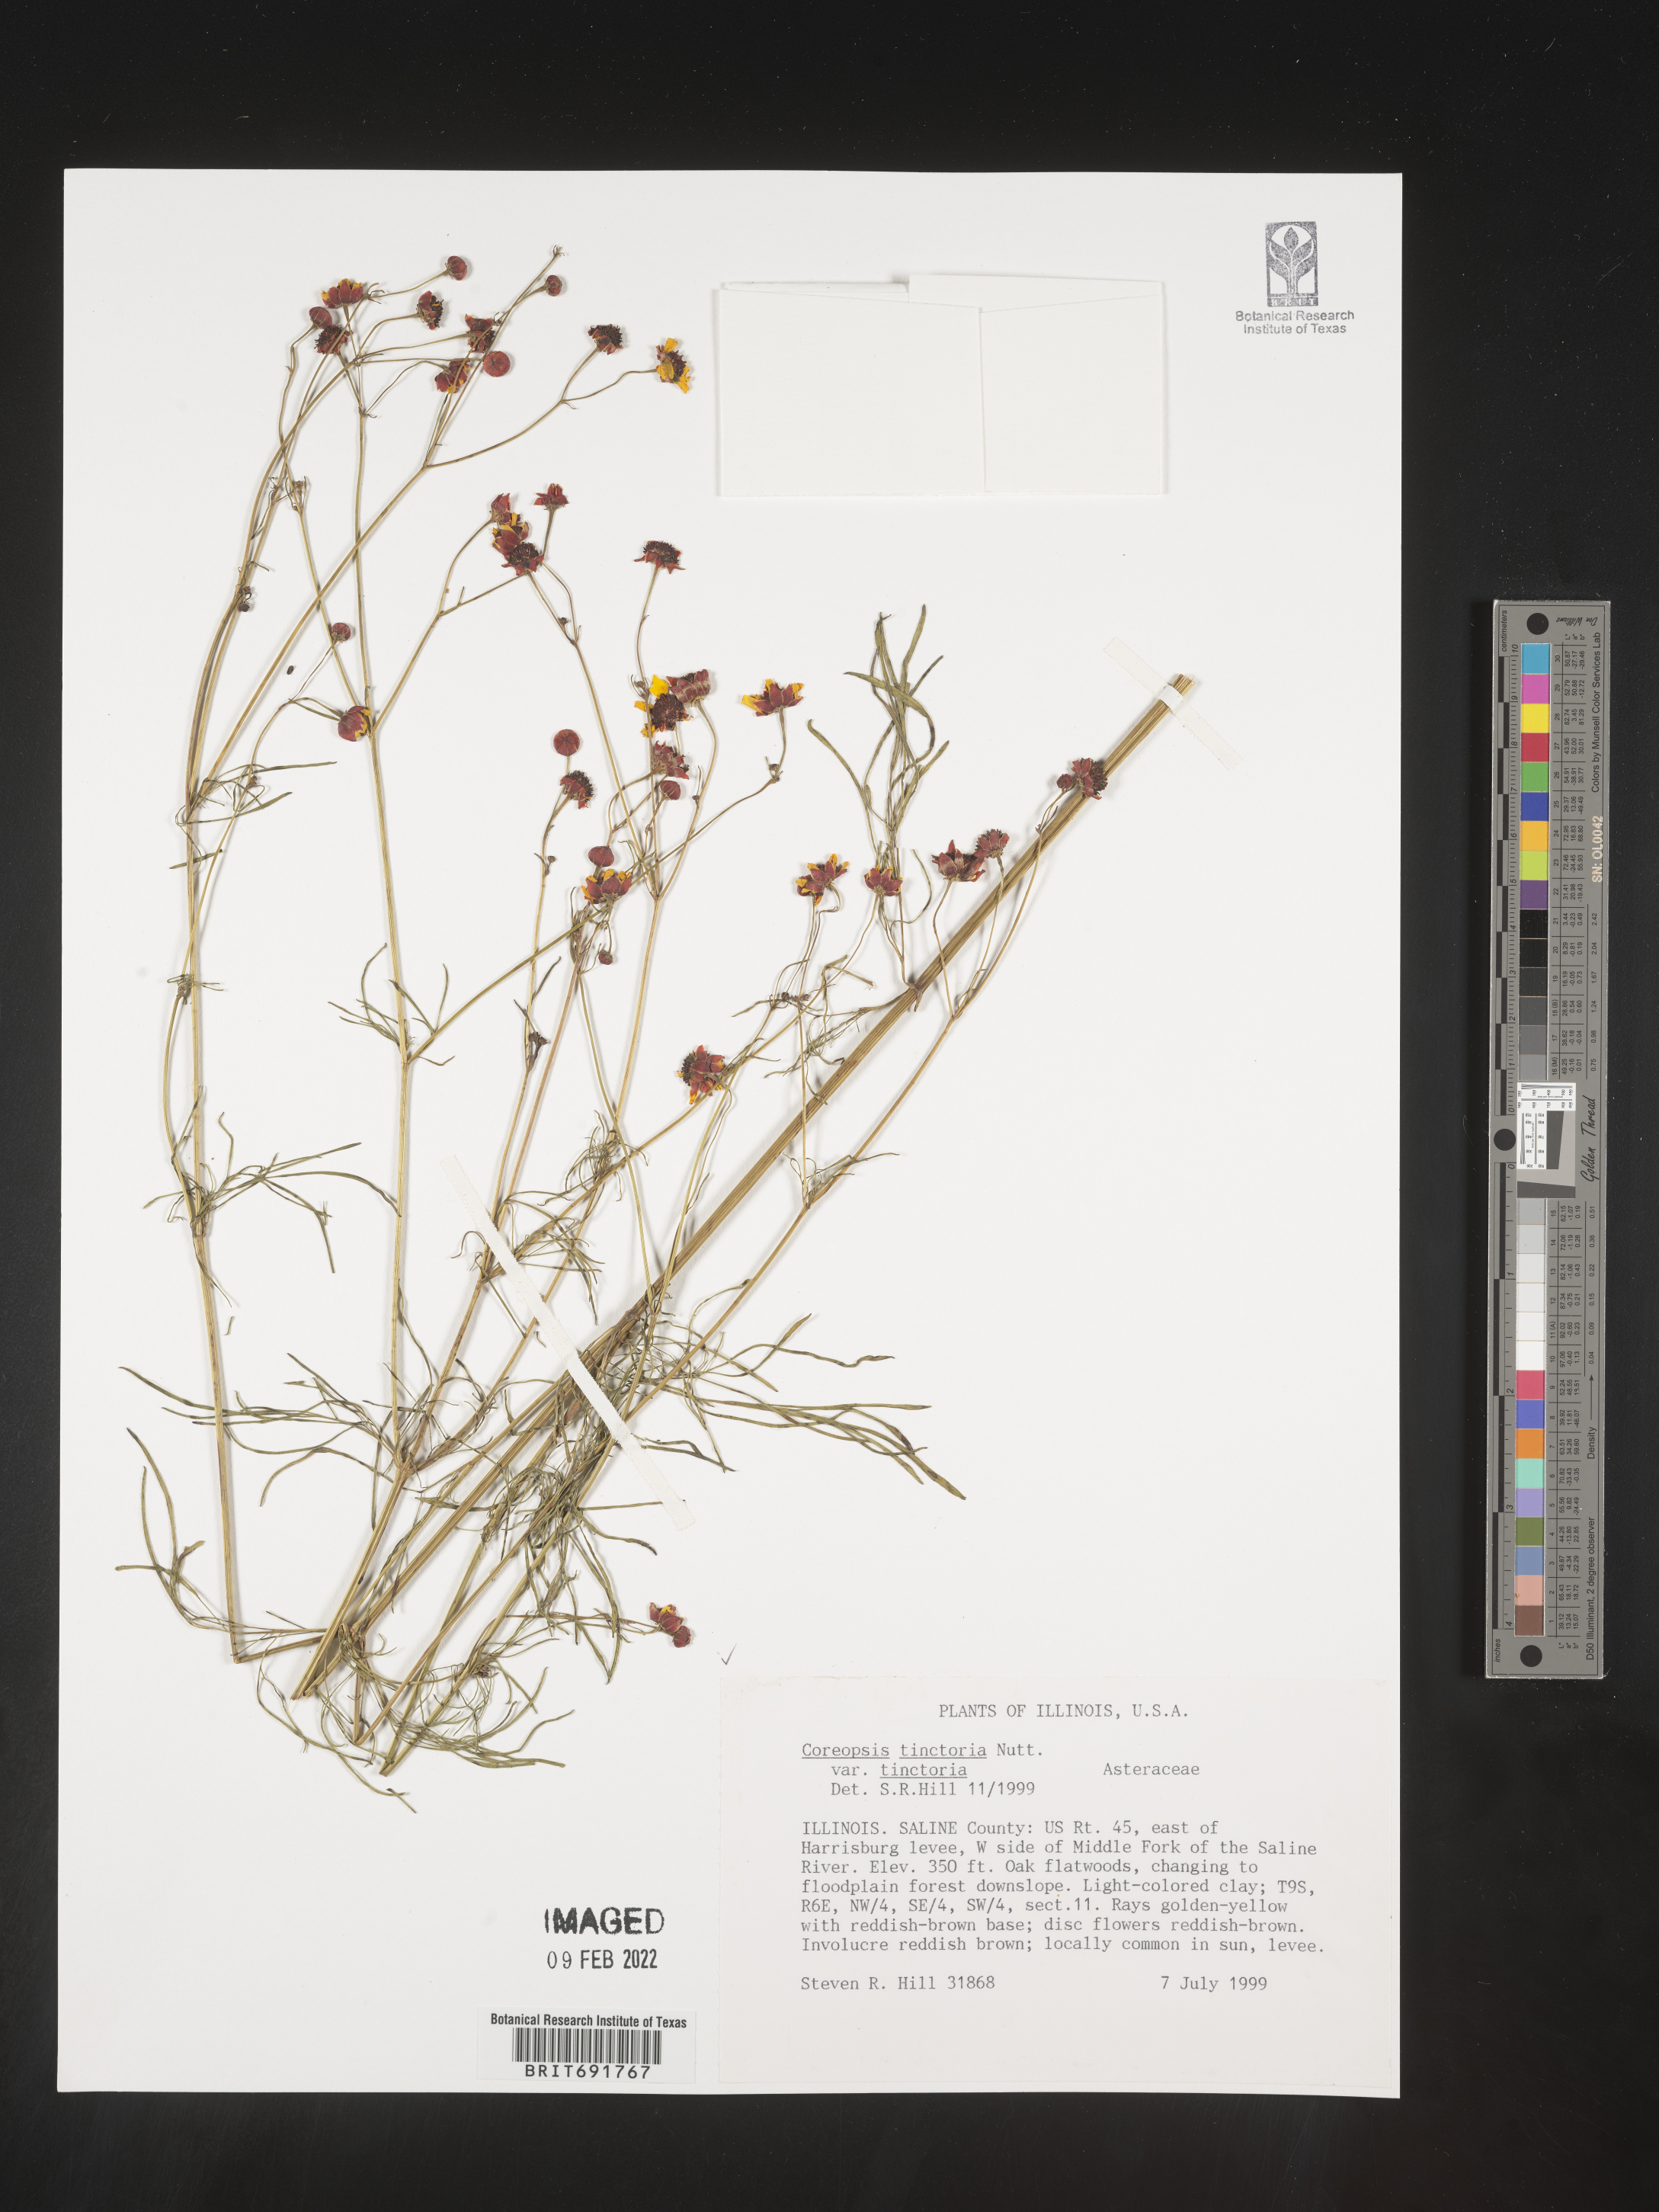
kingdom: Plantae
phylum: Tracheophyta
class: Magnoliopsida
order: Asterales
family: Asteraceae
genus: Coreopsis
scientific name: Coreopsis tinctoria
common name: Garden tickseed
